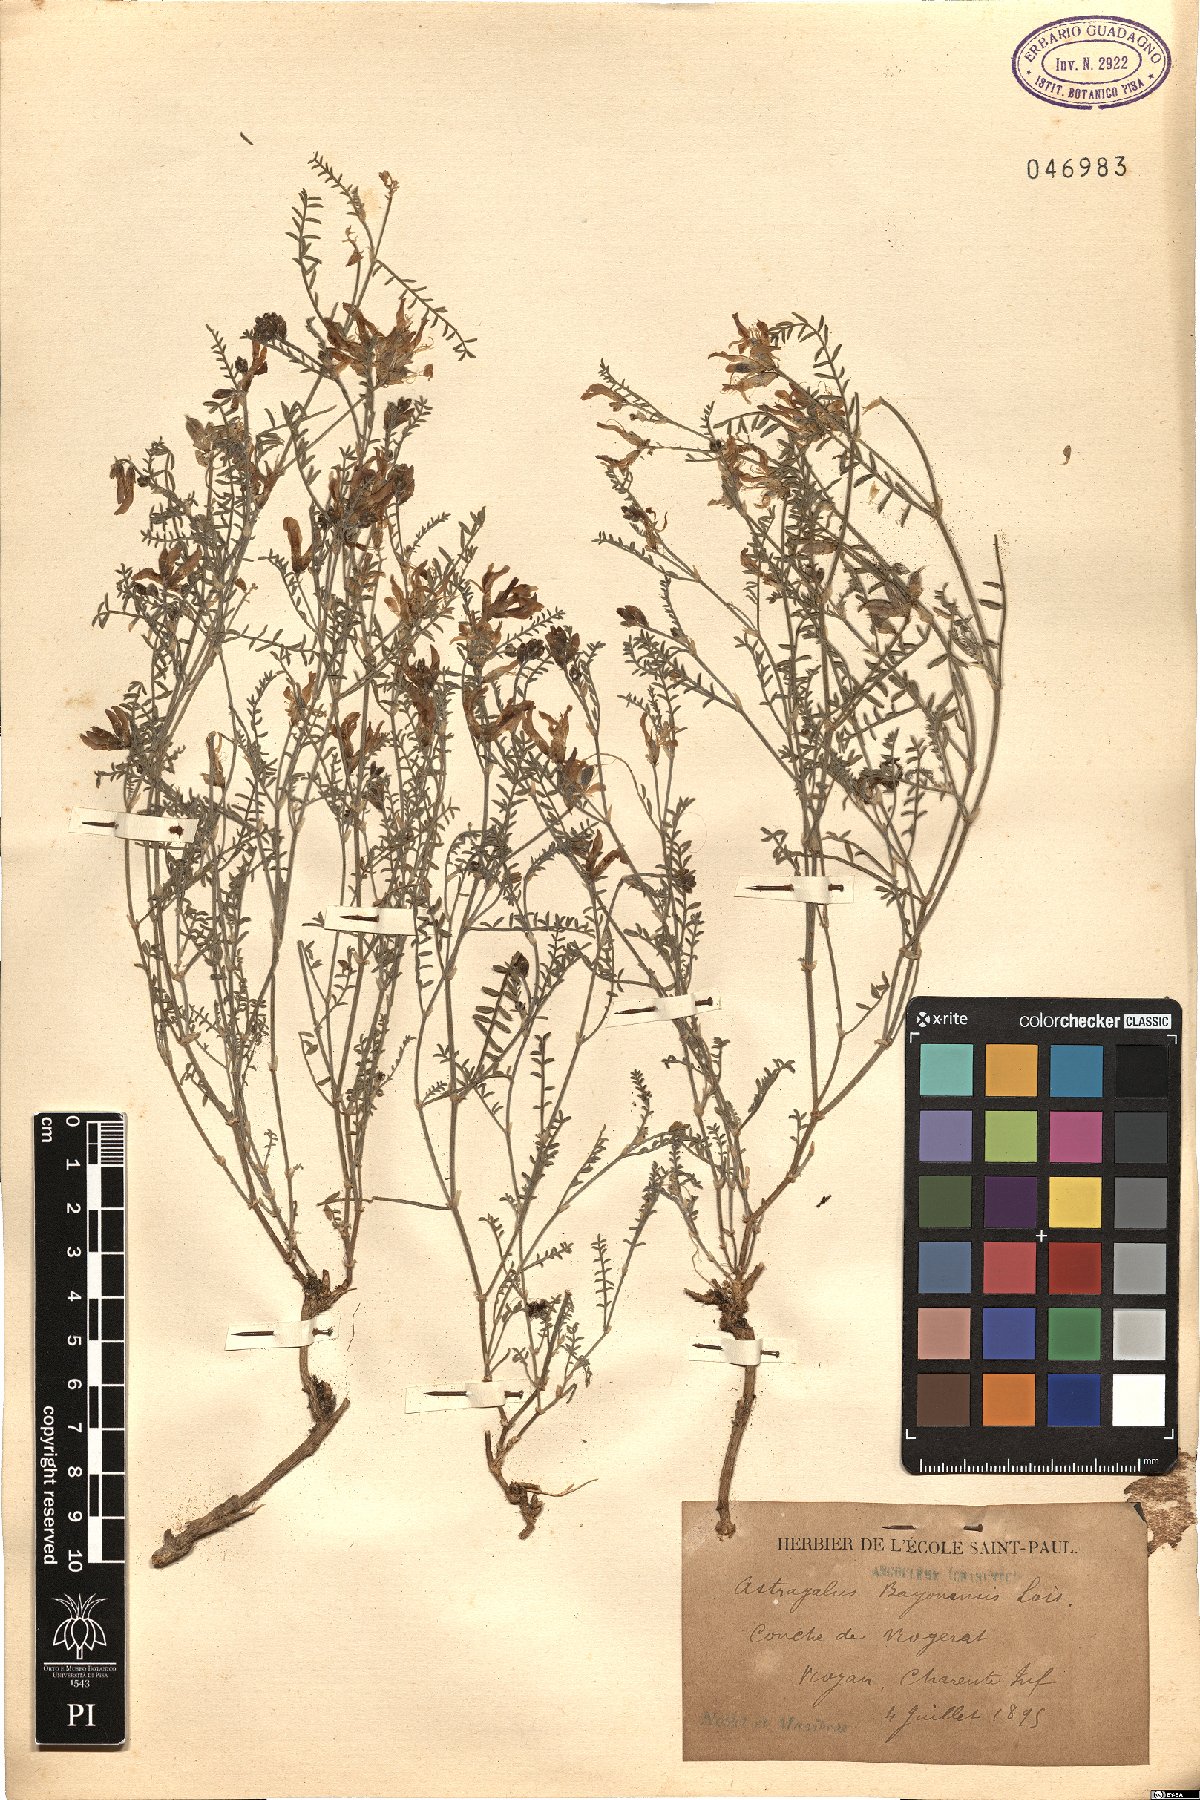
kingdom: Plantae
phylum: Tracheophyta
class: Magnoliopsida
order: Fabales
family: Fabaceae
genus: Astragalus
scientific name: Astragalus baionensis
